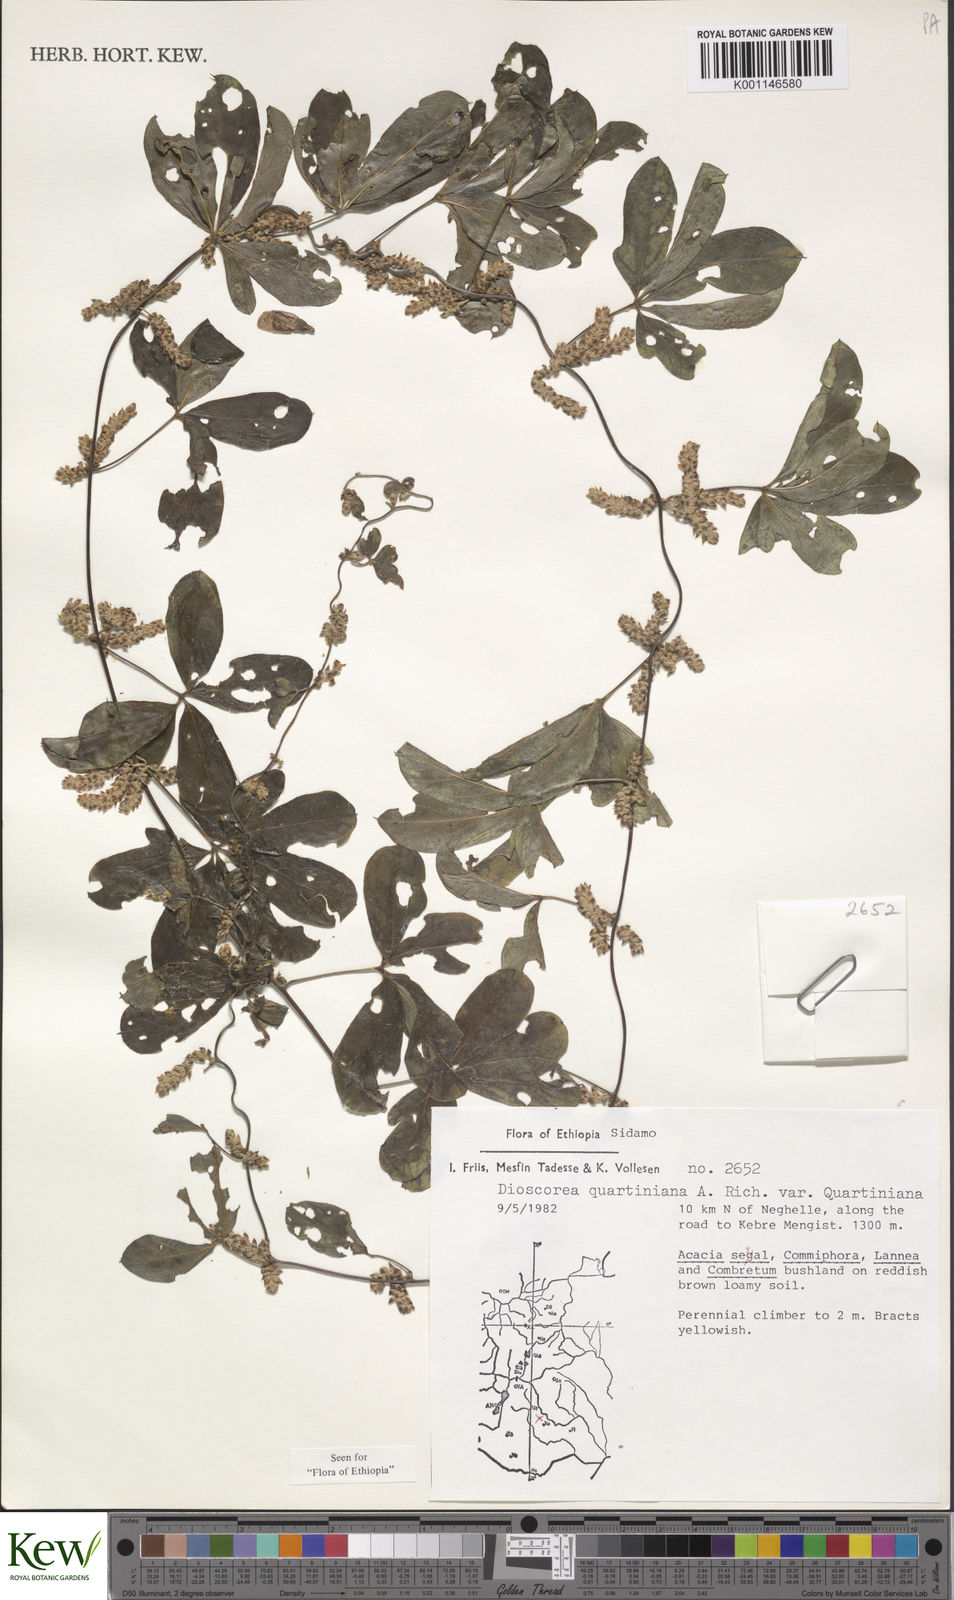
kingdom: Plantae
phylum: Tracheophyta
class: Liliopsida
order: Dioscoreales
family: Dioscoreaceae
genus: Dioscorea
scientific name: Dioscorea quartiniana
